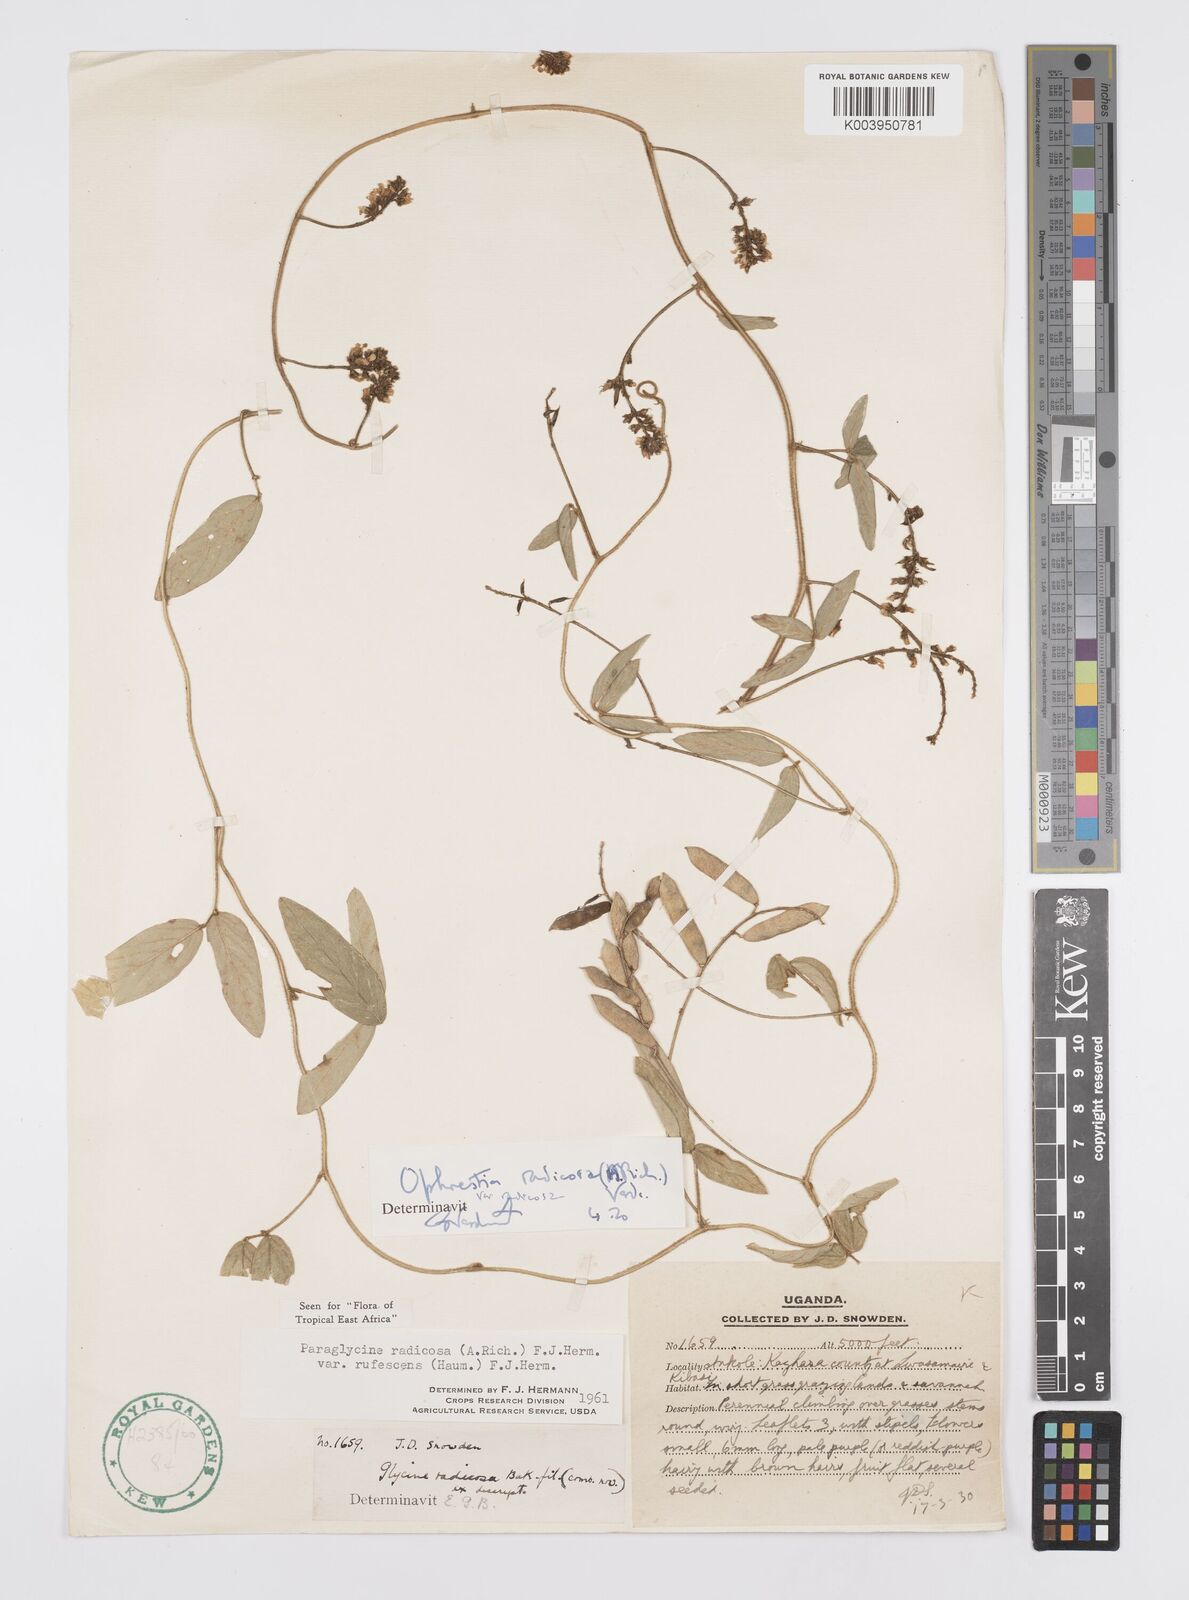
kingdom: Plantae
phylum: Tracheophyta
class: Magnoliopsida
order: Fabales
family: Fabaceae
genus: Ophrestia
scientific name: Ophrestia radicosa
